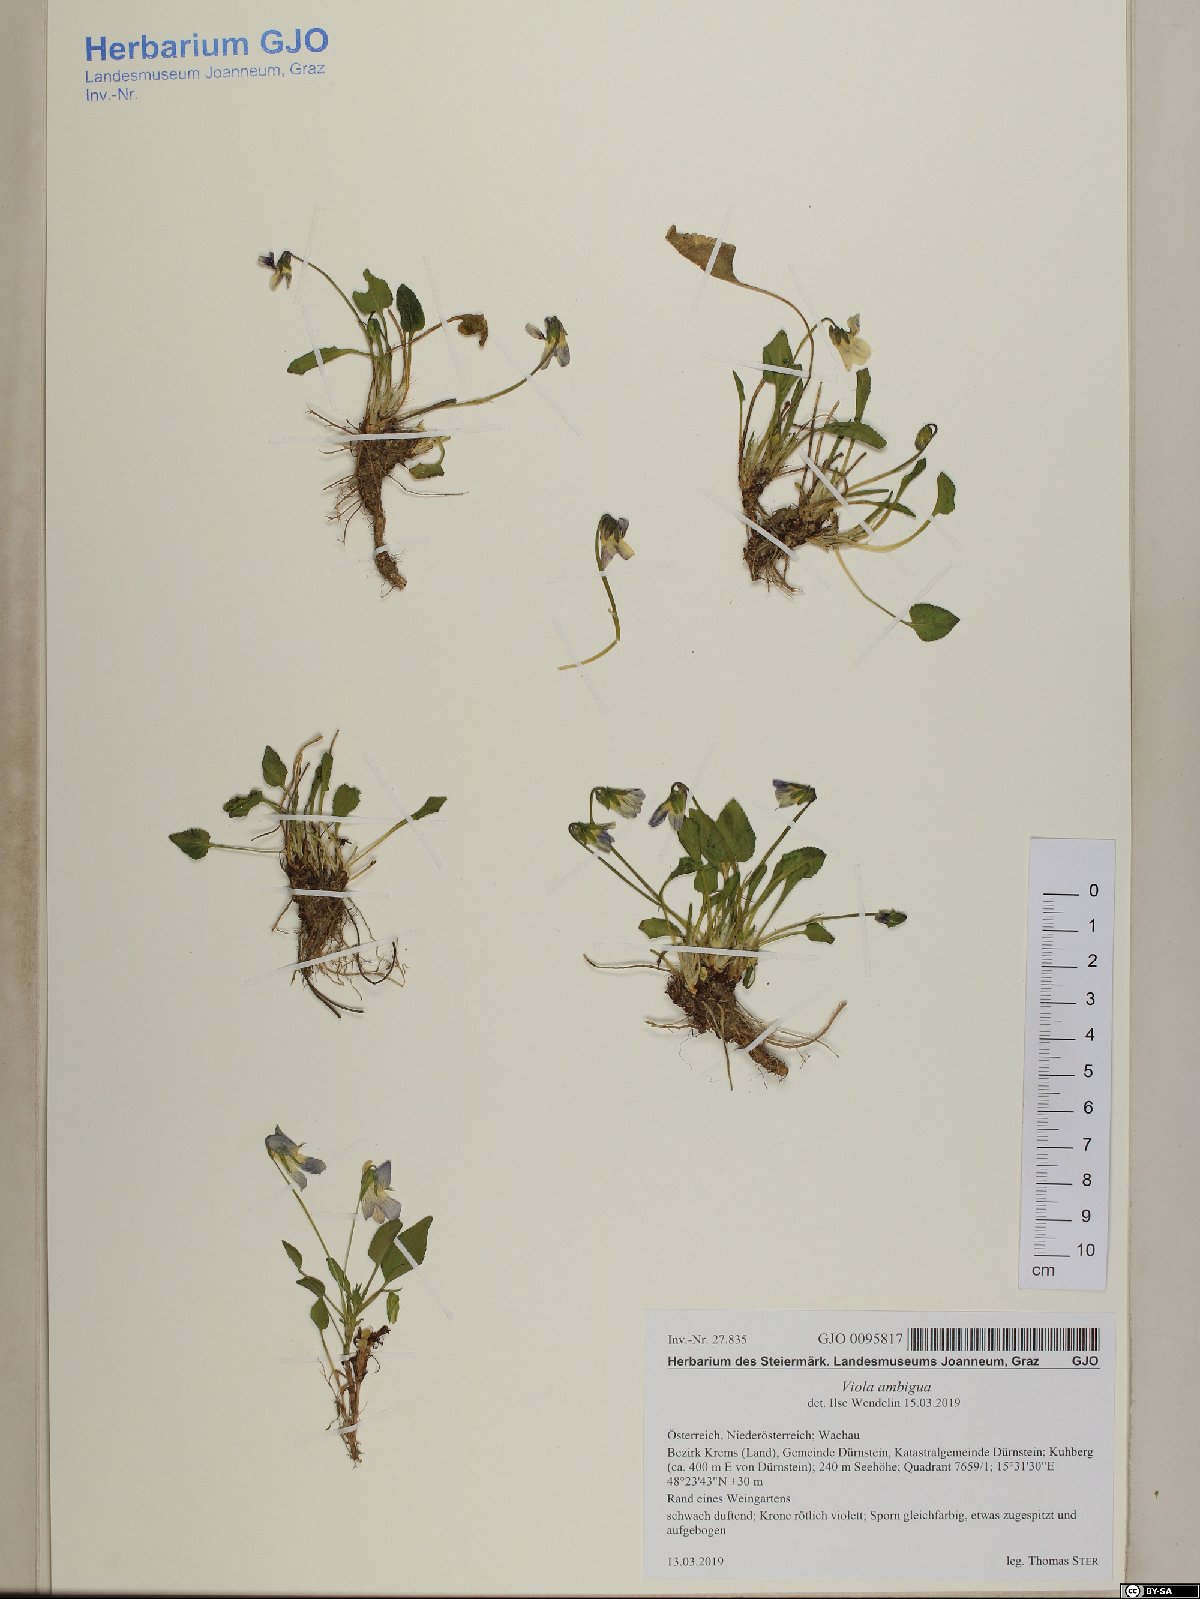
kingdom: Plantae
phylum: Tracheophyta
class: Magnoliopsida
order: Malpighiales
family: Violaceae
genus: Viola
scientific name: Viola ambigua
